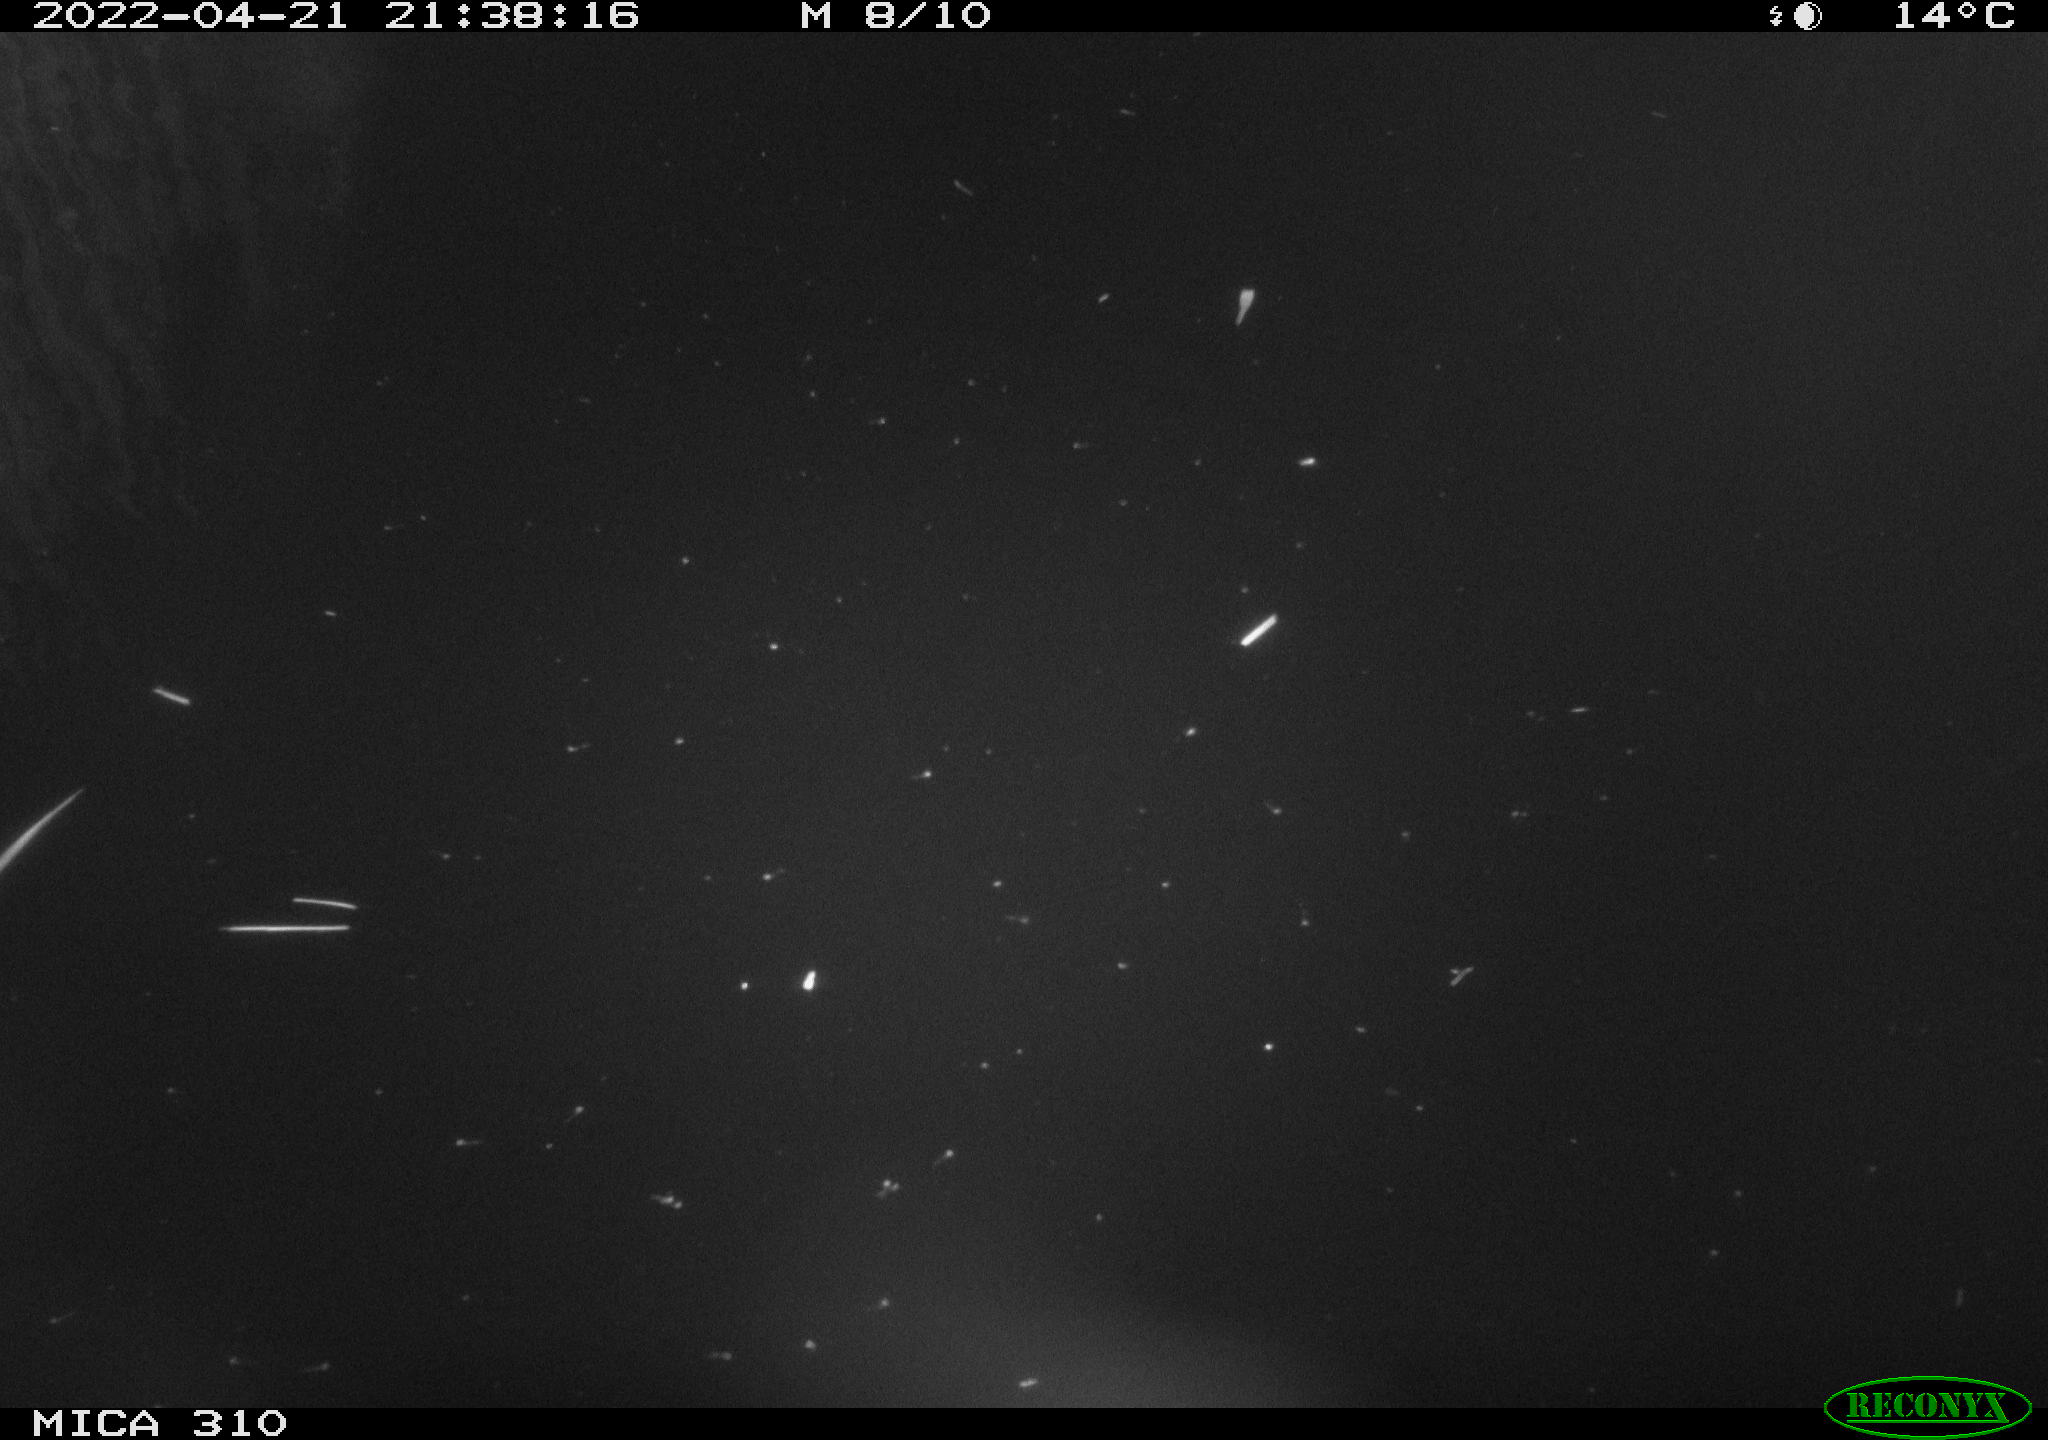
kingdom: Animalia
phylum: Chordata
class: Aves
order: Anseriformes
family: Anatidae
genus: Anas
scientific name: Anas platyrhynchos
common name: Mallard
